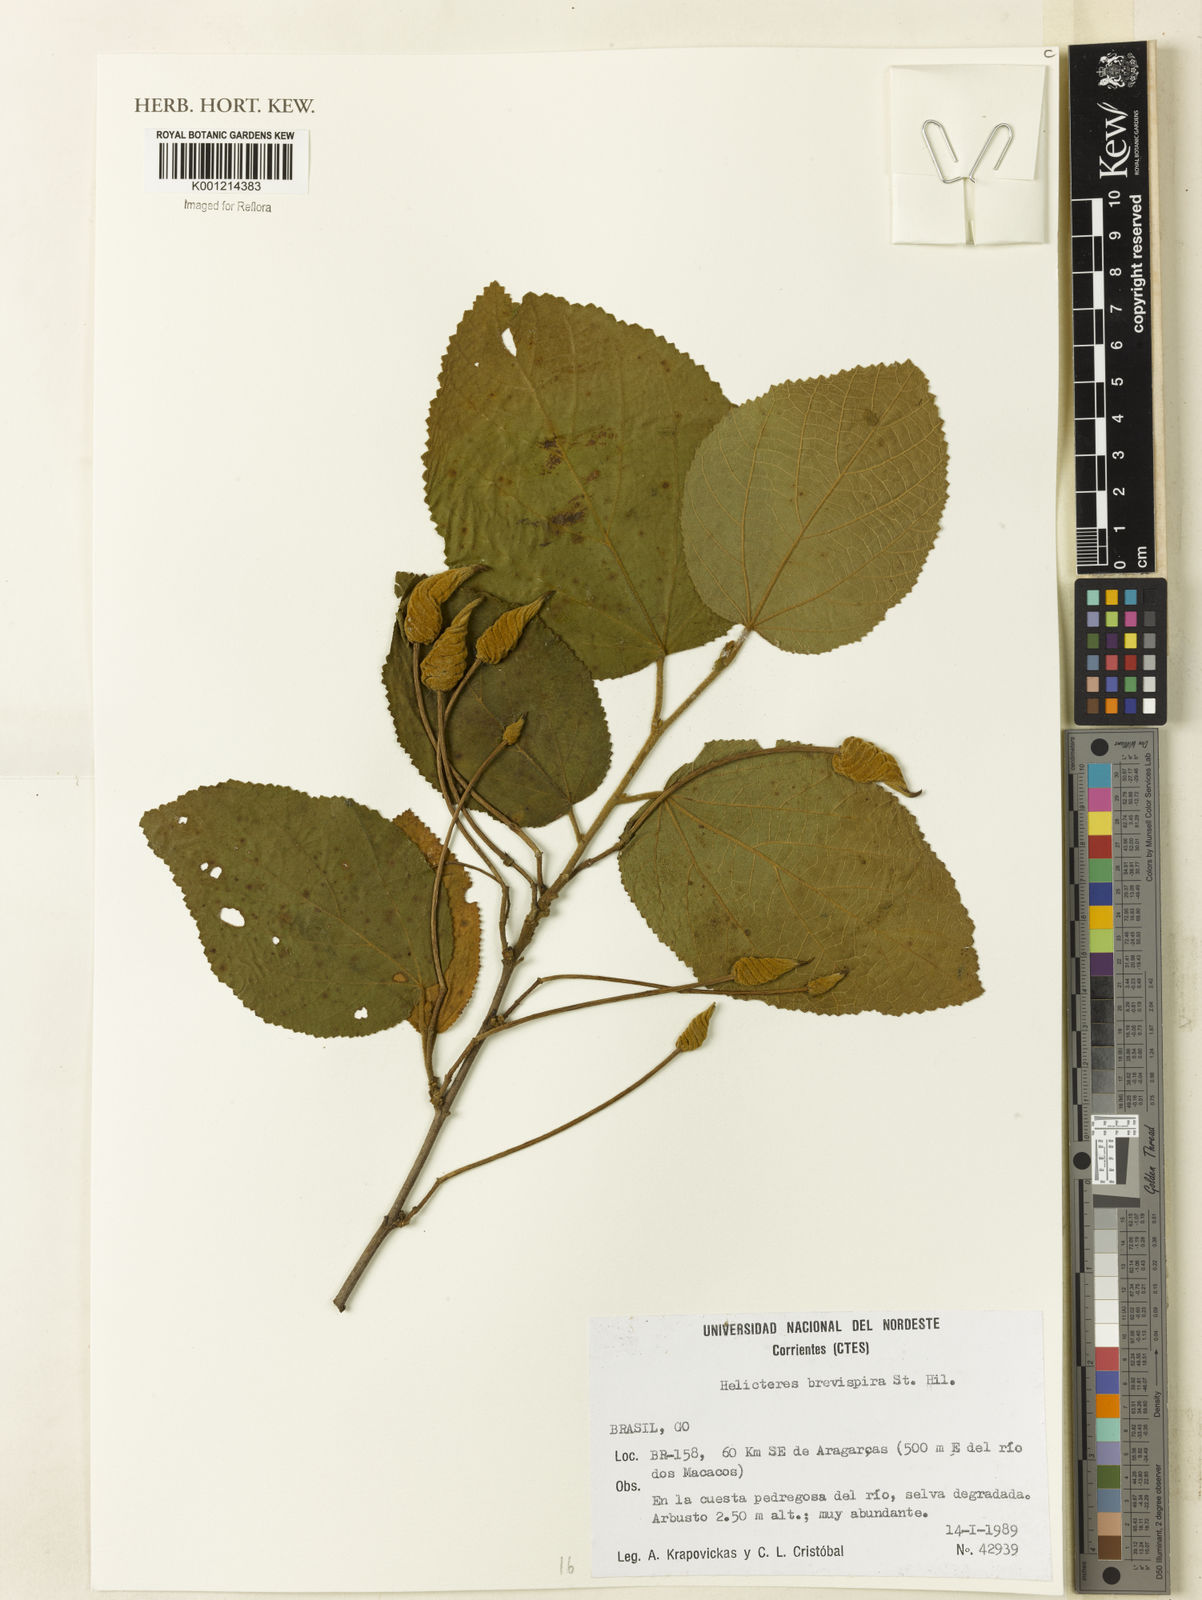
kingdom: Plantae
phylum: Tracheophyta
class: Magnoliopsida
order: Malvales
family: Malvaceae
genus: Helicteres
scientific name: Helicteres
